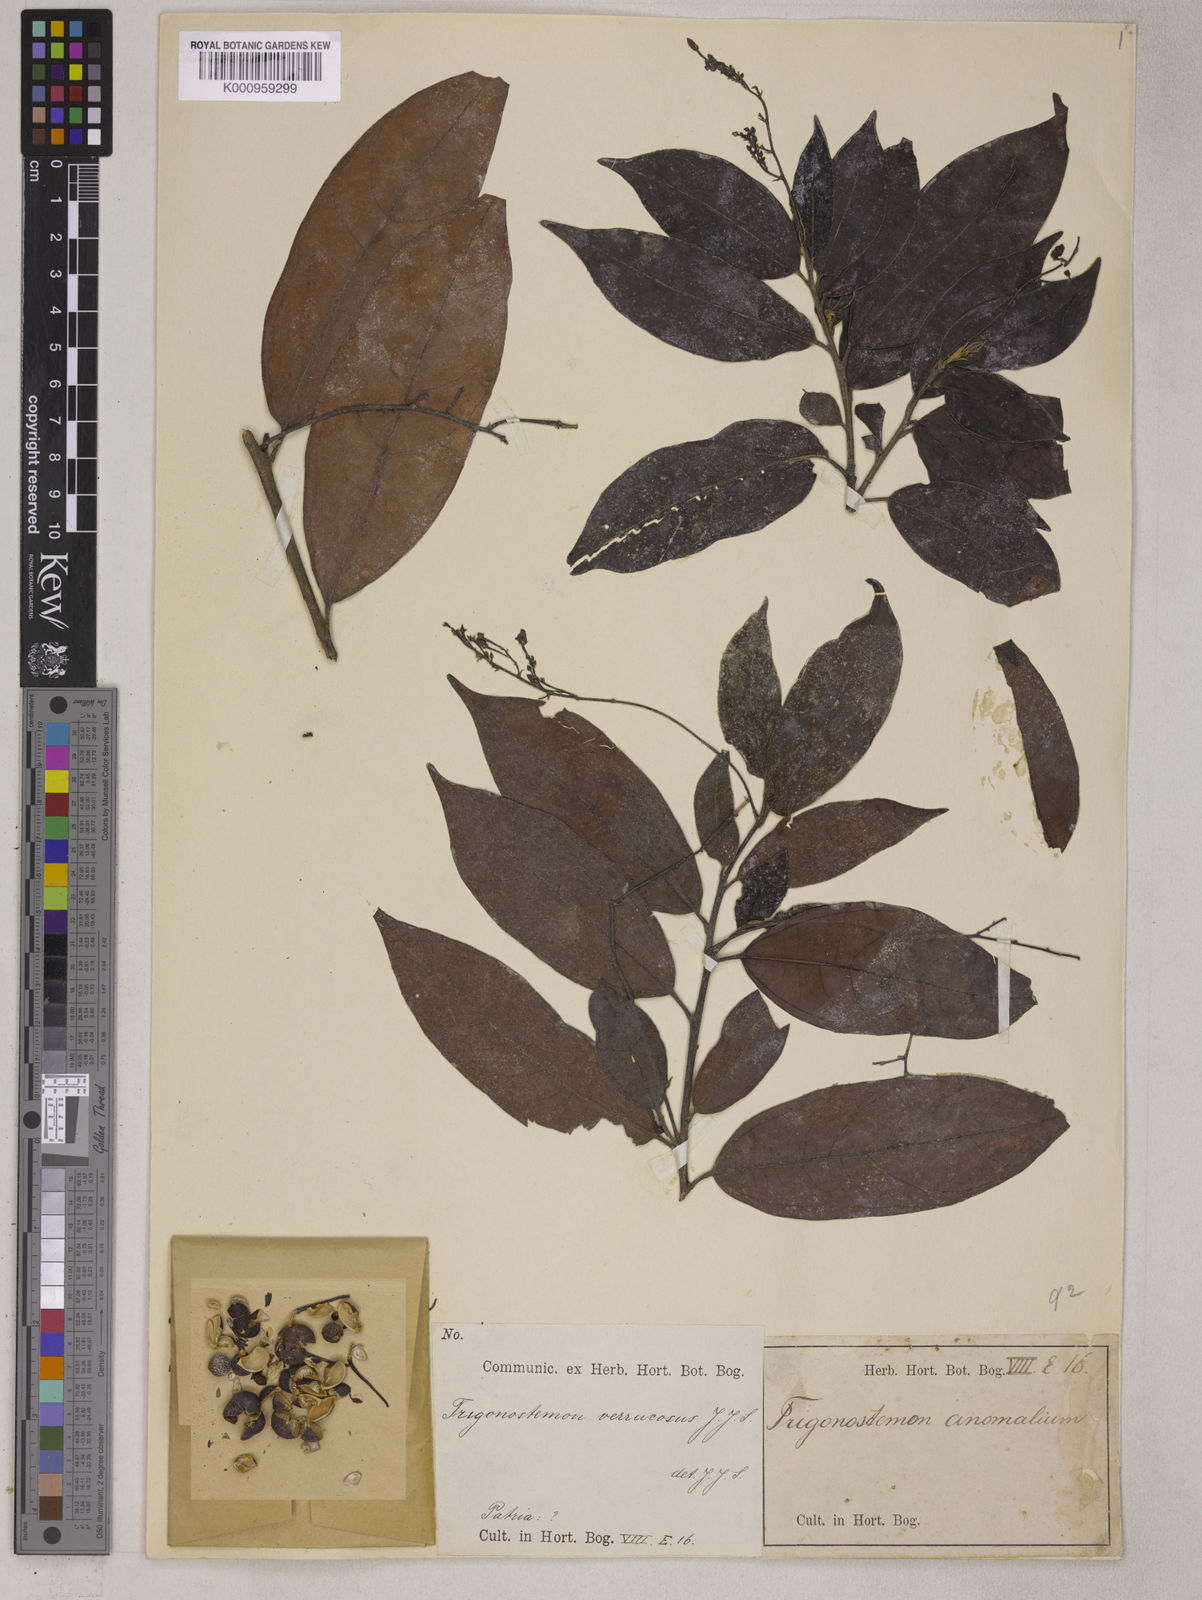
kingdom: Plantae
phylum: Tracheophyta
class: Magnoliopsida
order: Malpighiales
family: Euphorbiaceae
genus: Trigonostemon
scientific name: Trigonostemon capitellatus
